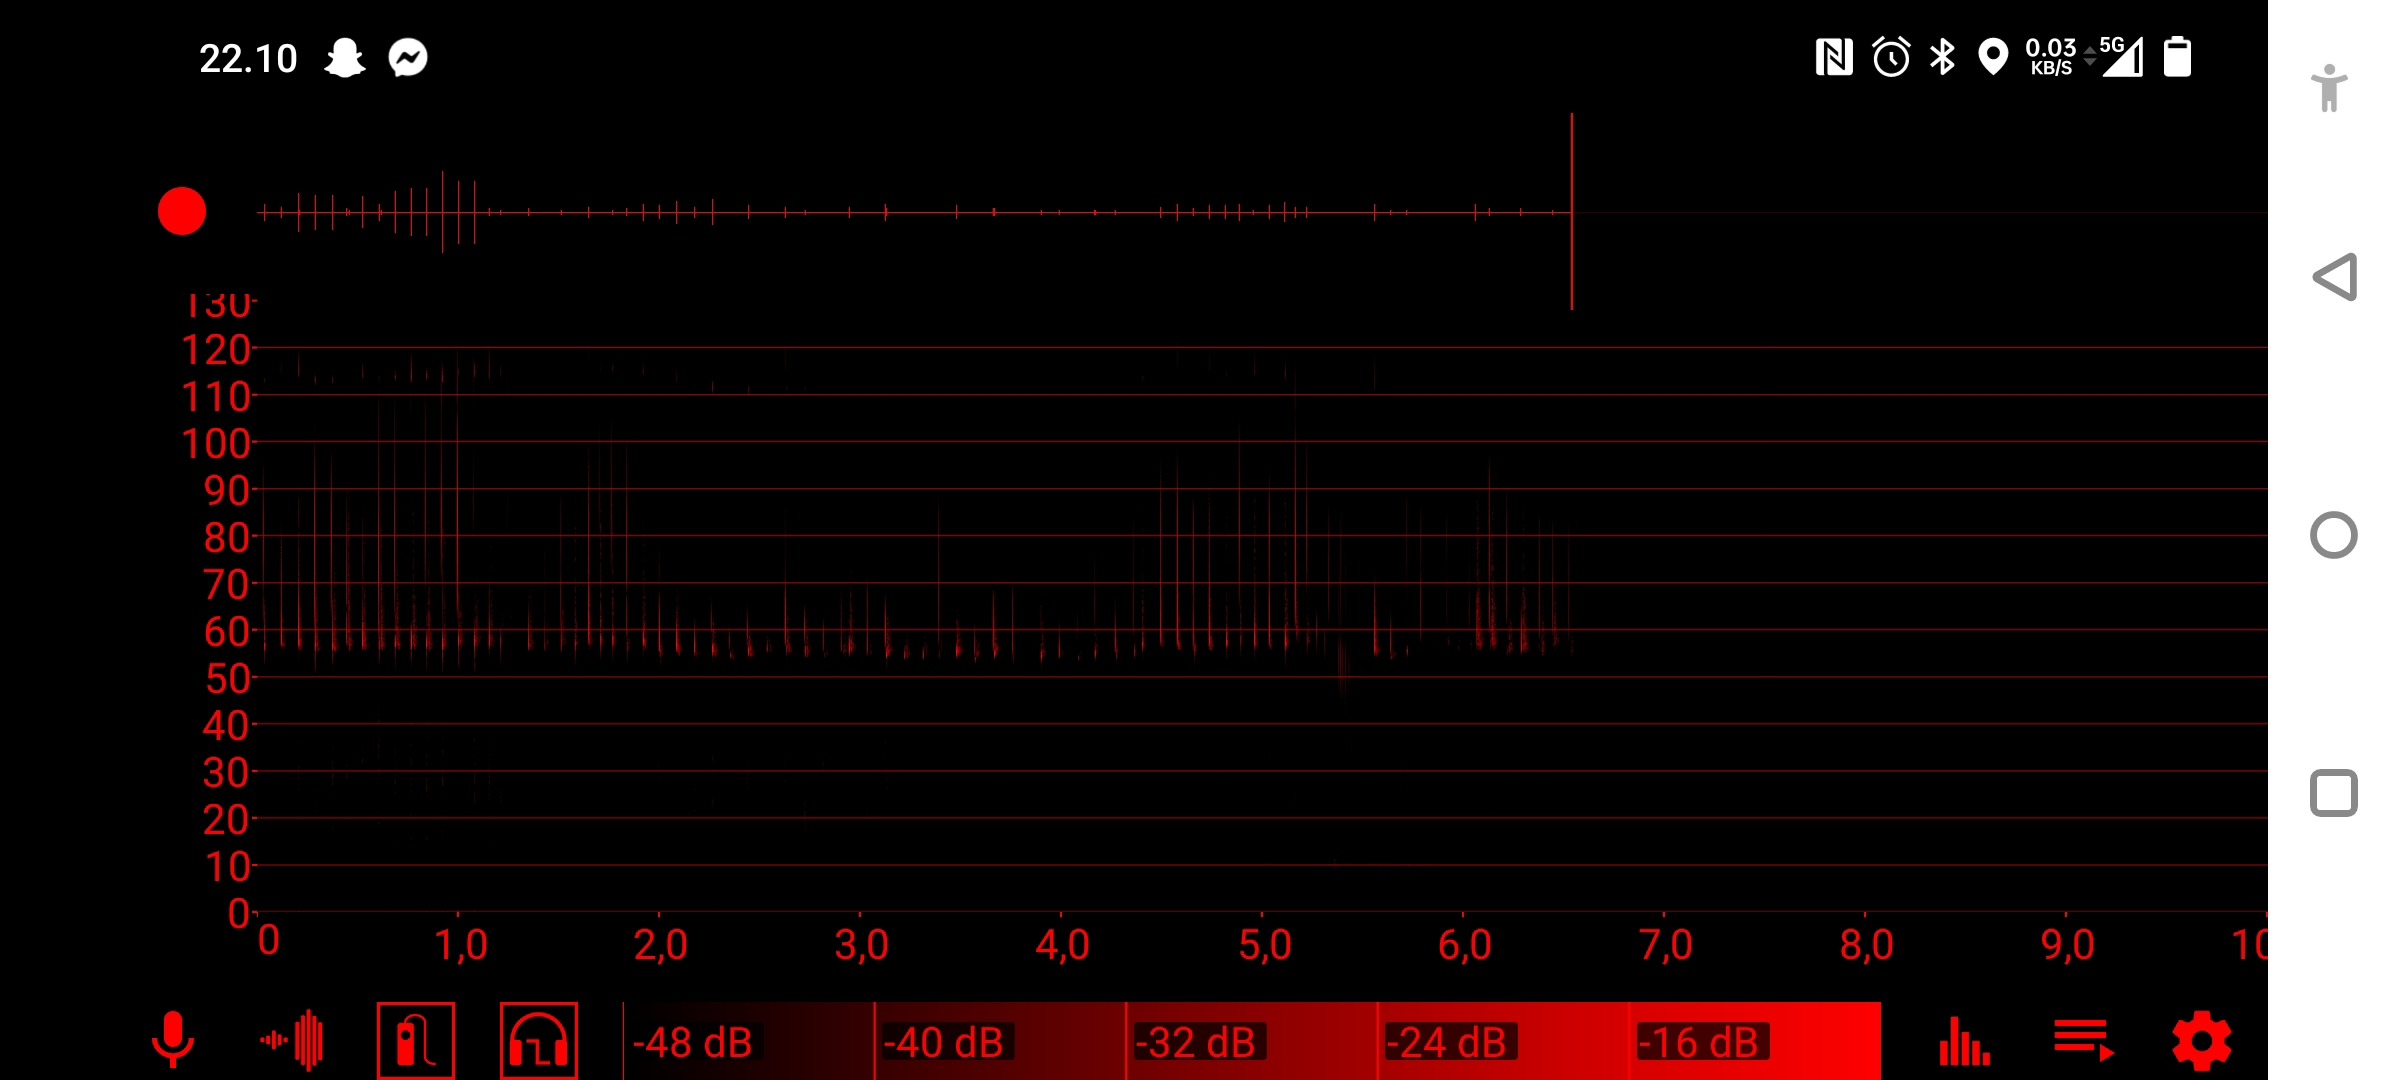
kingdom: Animalia
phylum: Chordata
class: Mammalia
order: Chiroptera
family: Vespertilionidae
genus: Pipistrellus
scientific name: Pipistrellus pygmaeus
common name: Dværgflagermus
